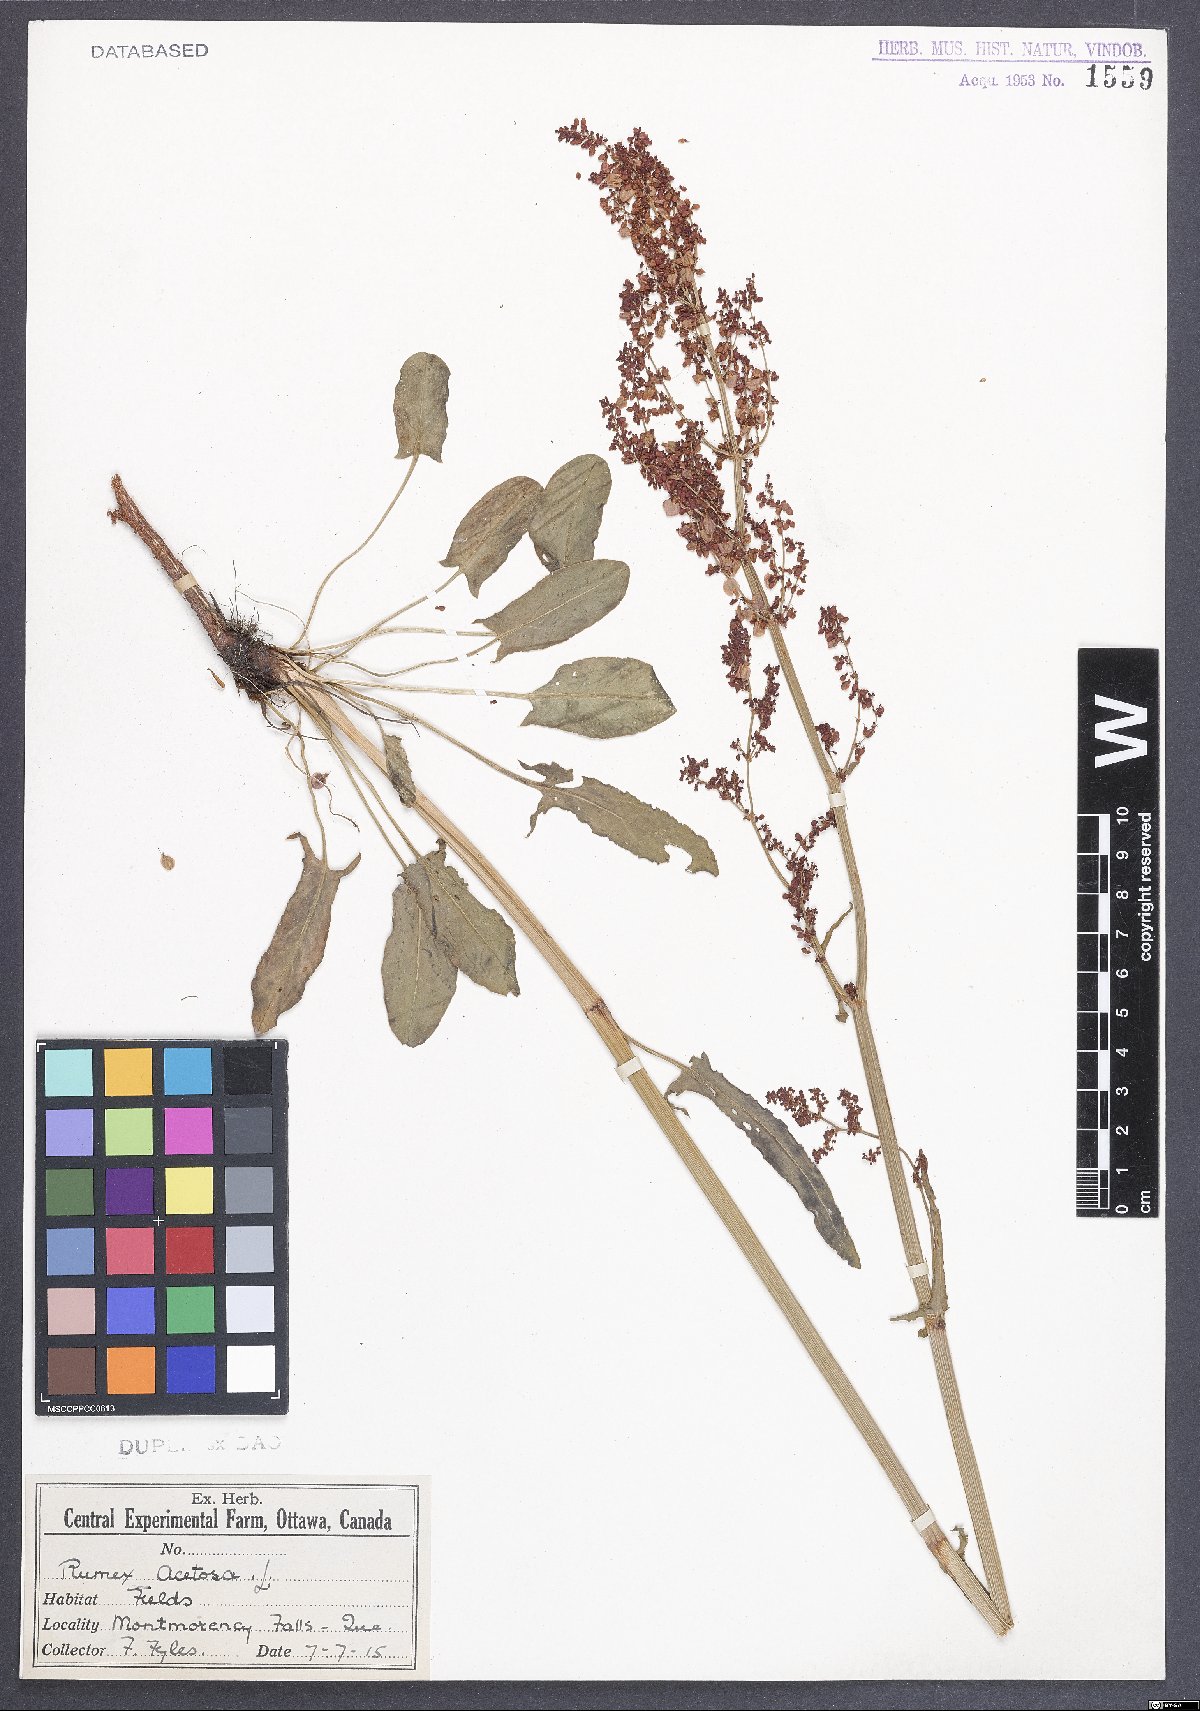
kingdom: Plantae
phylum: Tracheophyta
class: Magnoliopsida
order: Caryophyllales
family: Polygonaceae
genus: Rumex
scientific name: Rumex acetosa
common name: Garden sorrel
